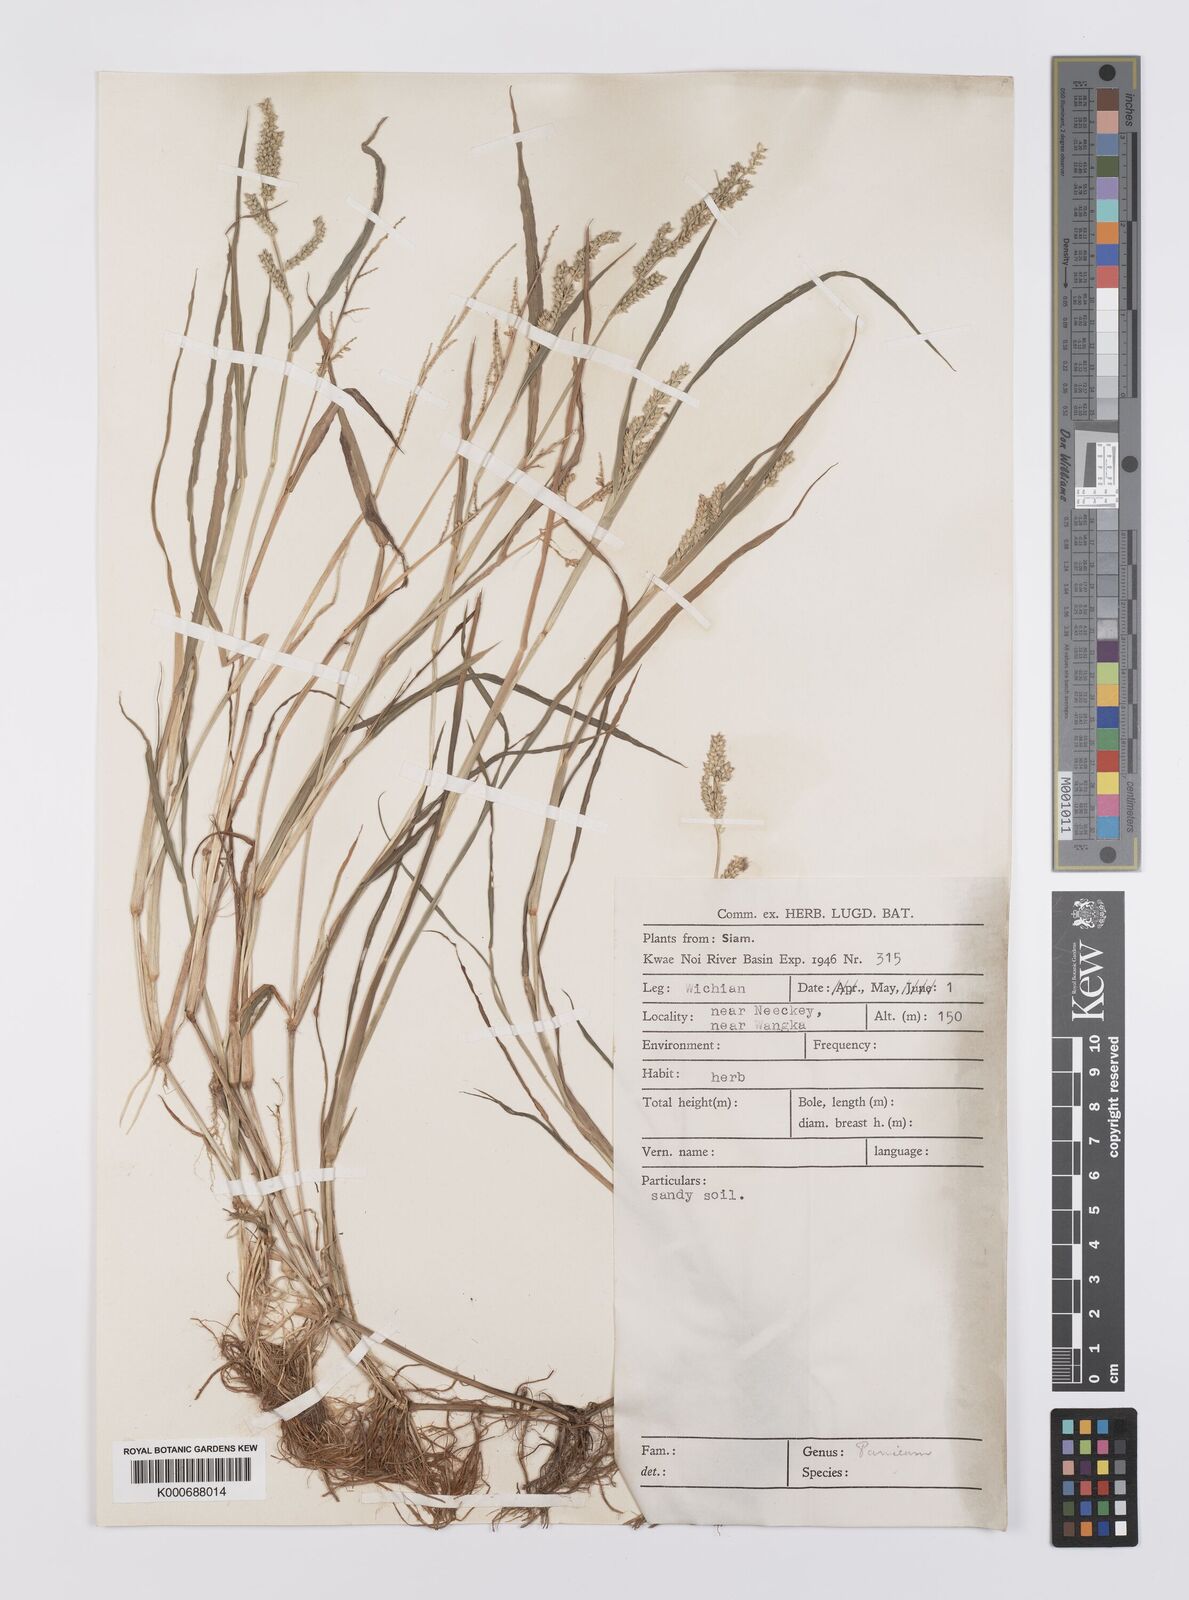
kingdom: Plantae
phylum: Tracheophyta
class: Liliopsida
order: Poales
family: Poaceae
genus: Echinochloa
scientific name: Echinochloa colonum
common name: Jungle rice
